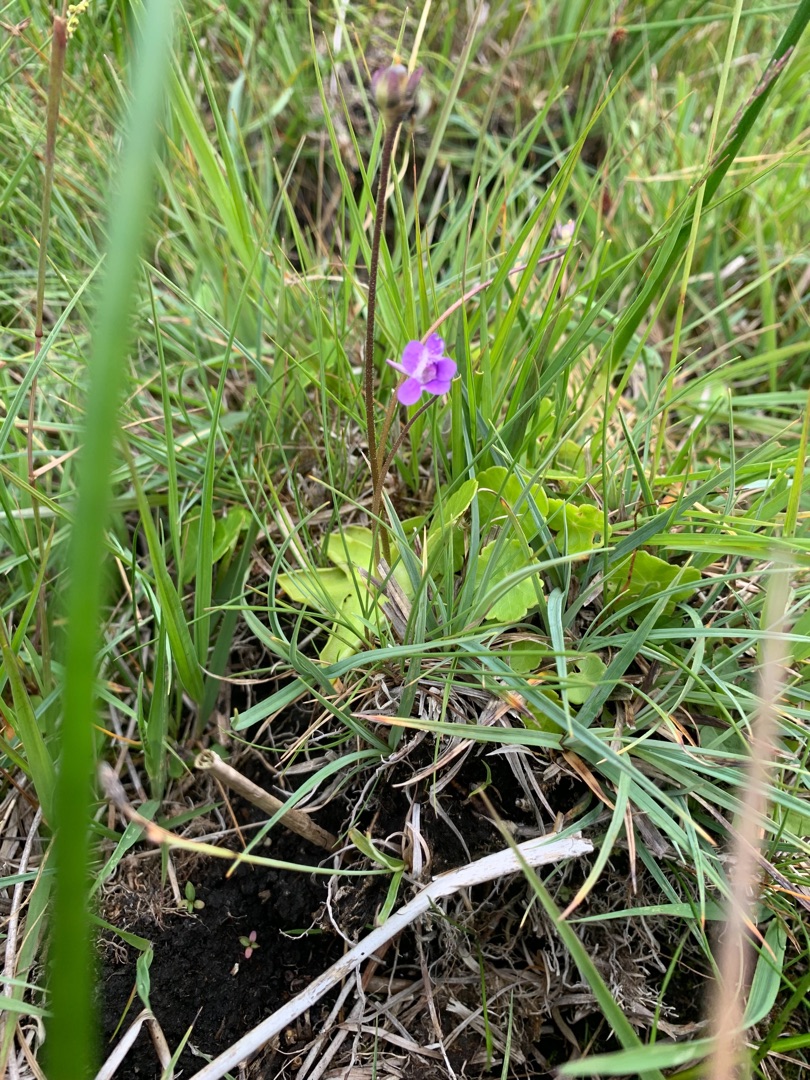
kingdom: Plantae
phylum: Tracheophyta
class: Magnoliopsida
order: Lamiales
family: Lentibulariaceae
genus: Pinguicula
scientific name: Pinguicula vulgaris
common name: Vibefedt
